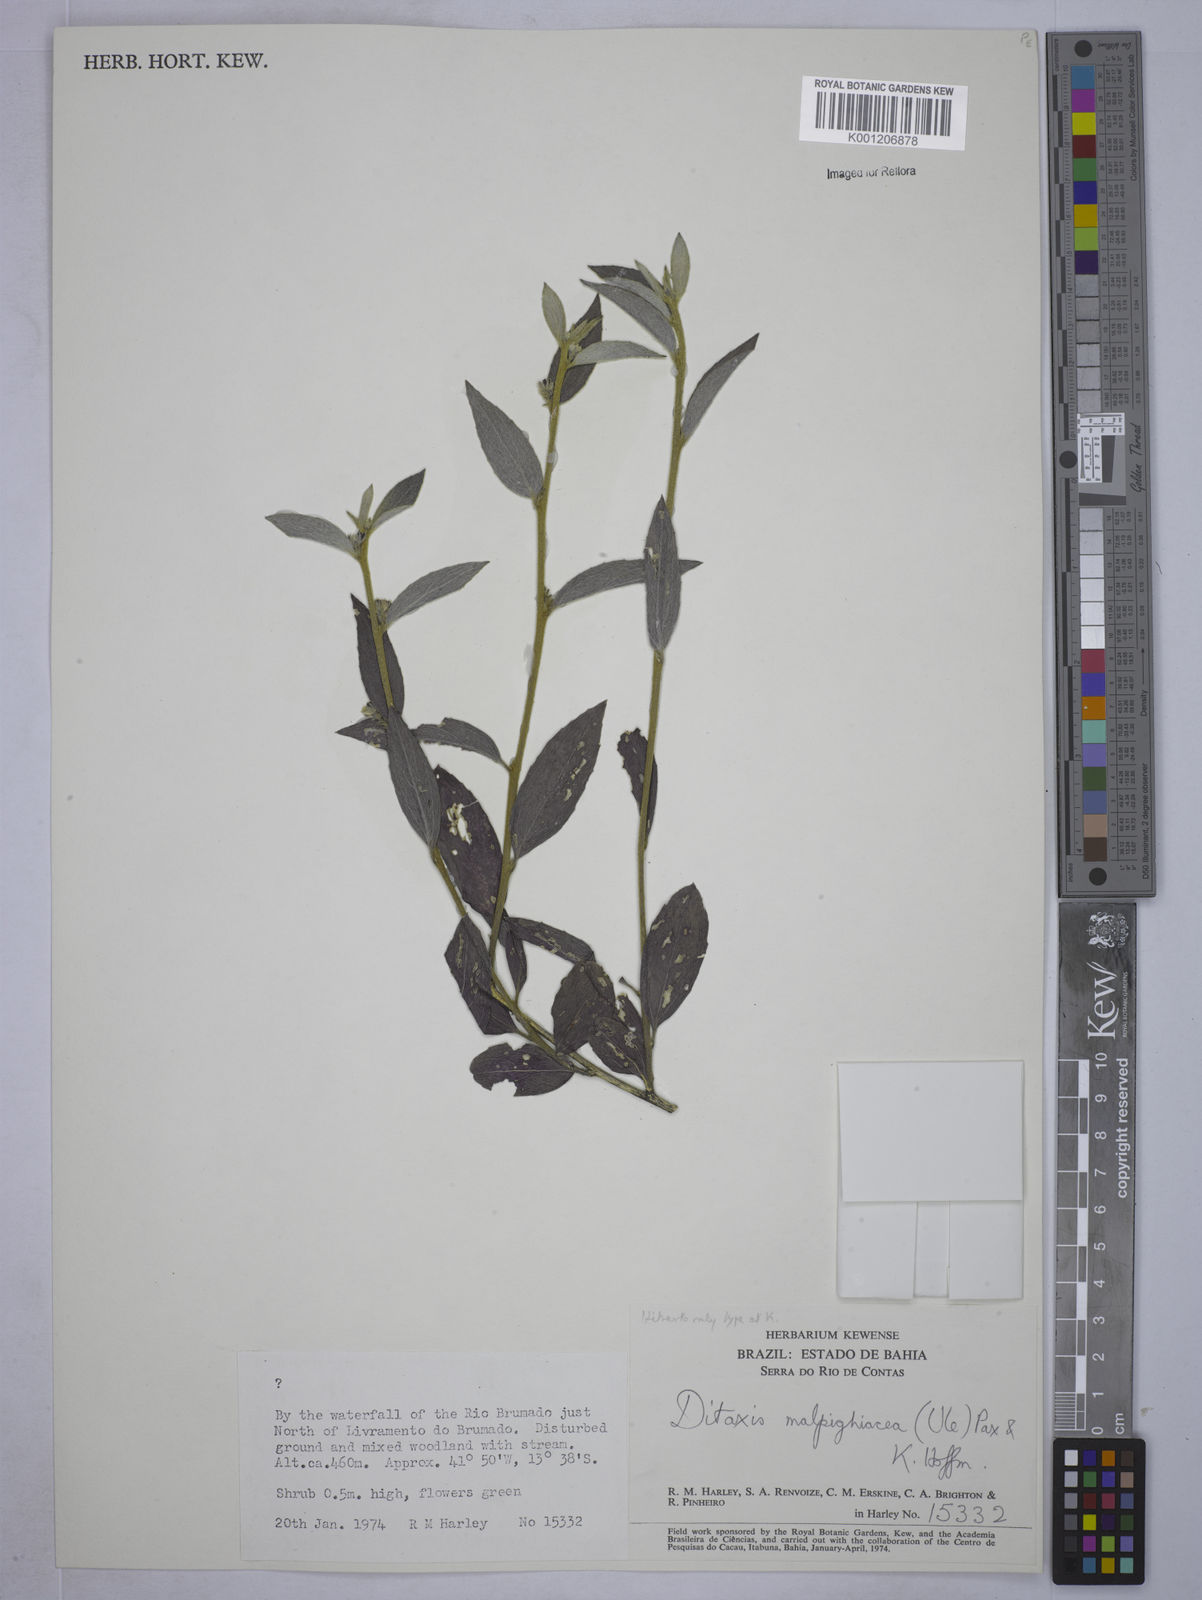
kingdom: Plantae
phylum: Tracheophyta
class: Magnoliopsida
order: Malpighiales
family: Euphorbiaceae
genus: Ditaxis
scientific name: Ditaxis malpighiacea
